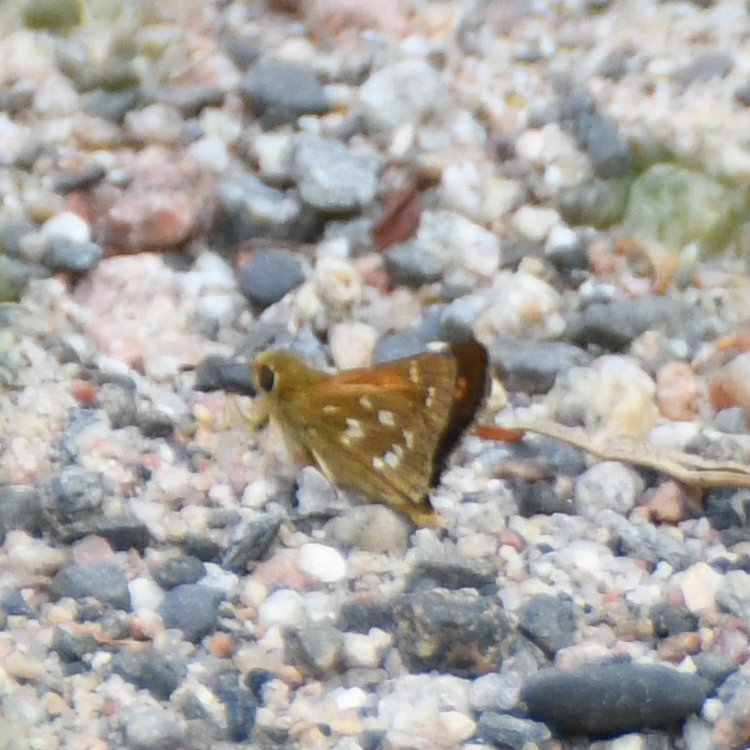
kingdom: Animalia
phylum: Arthropoda
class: Insecta
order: Lepidoptera
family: Hesperiidae
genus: Hesperia
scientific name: Hesperia comma
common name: Common Branded Skipper
